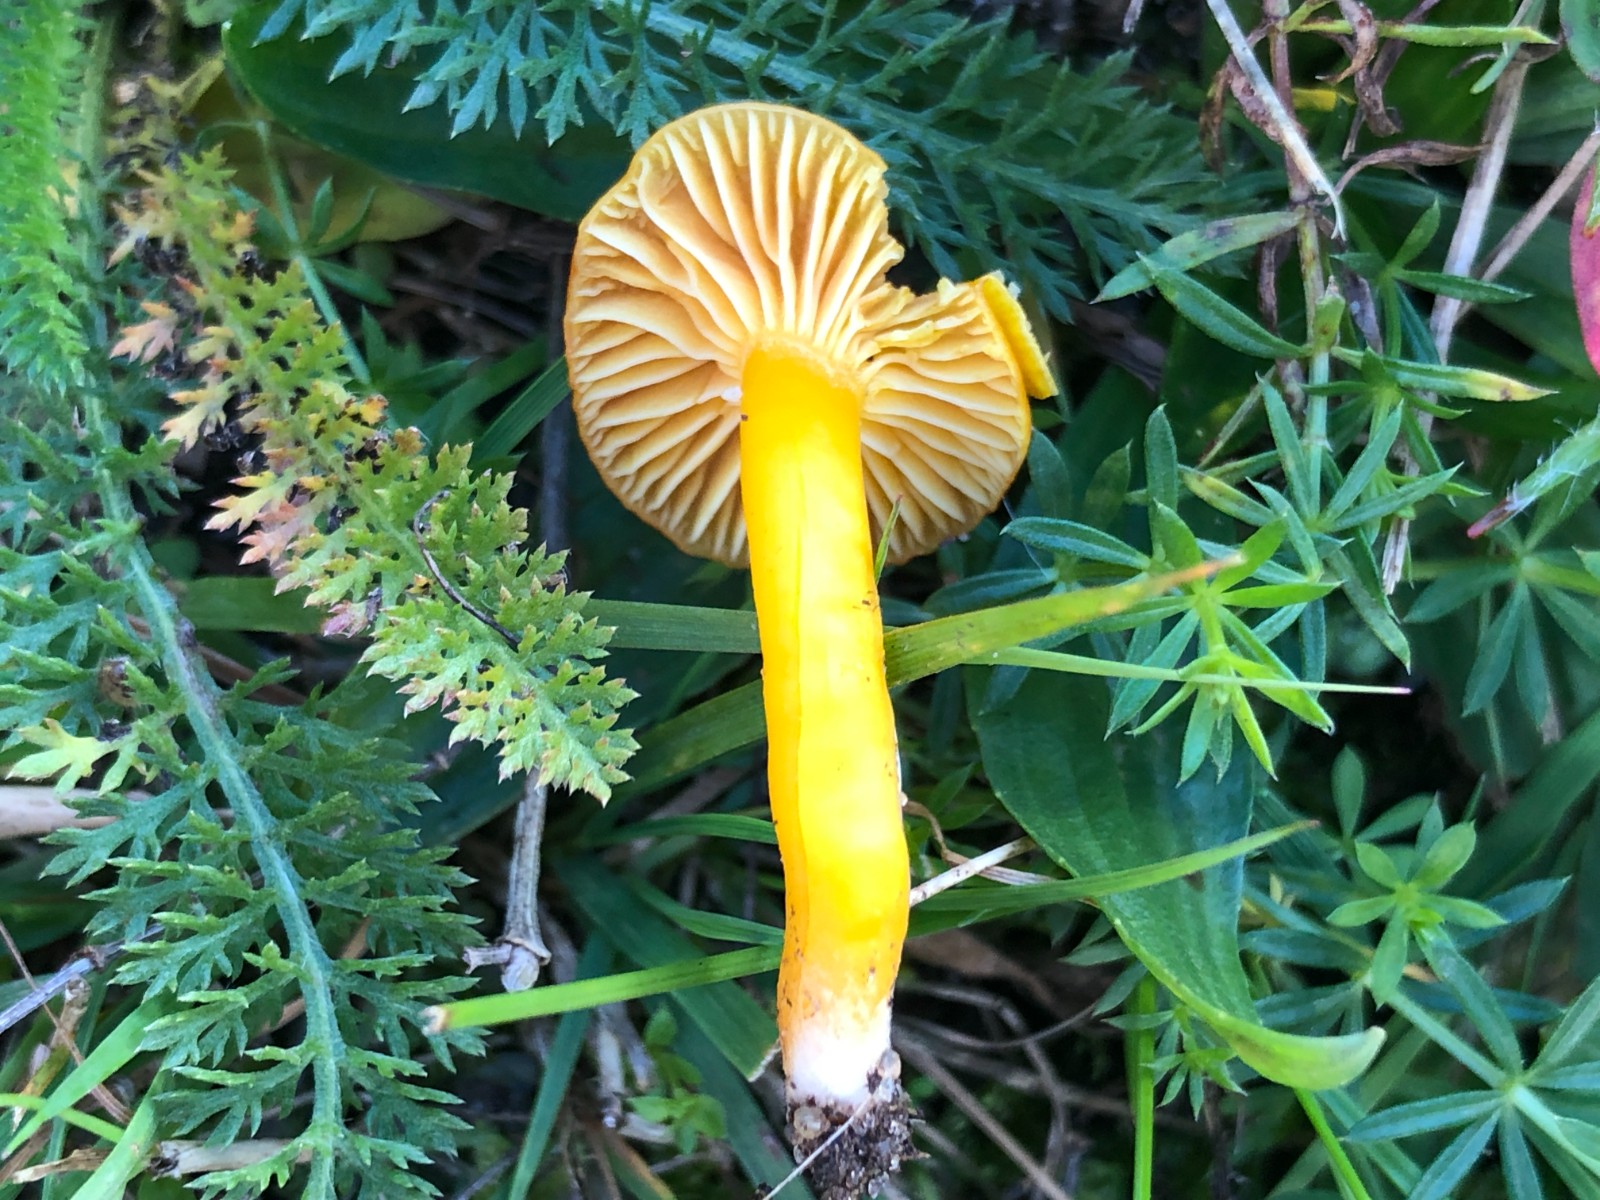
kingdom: Fungi
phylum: Basidiomycota
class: Agaricomycetes
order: Agaricales
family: Hygrophoraceae
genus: Hygrocybe
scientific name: Hygrocybe ceracea
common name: voksgul vokshat
